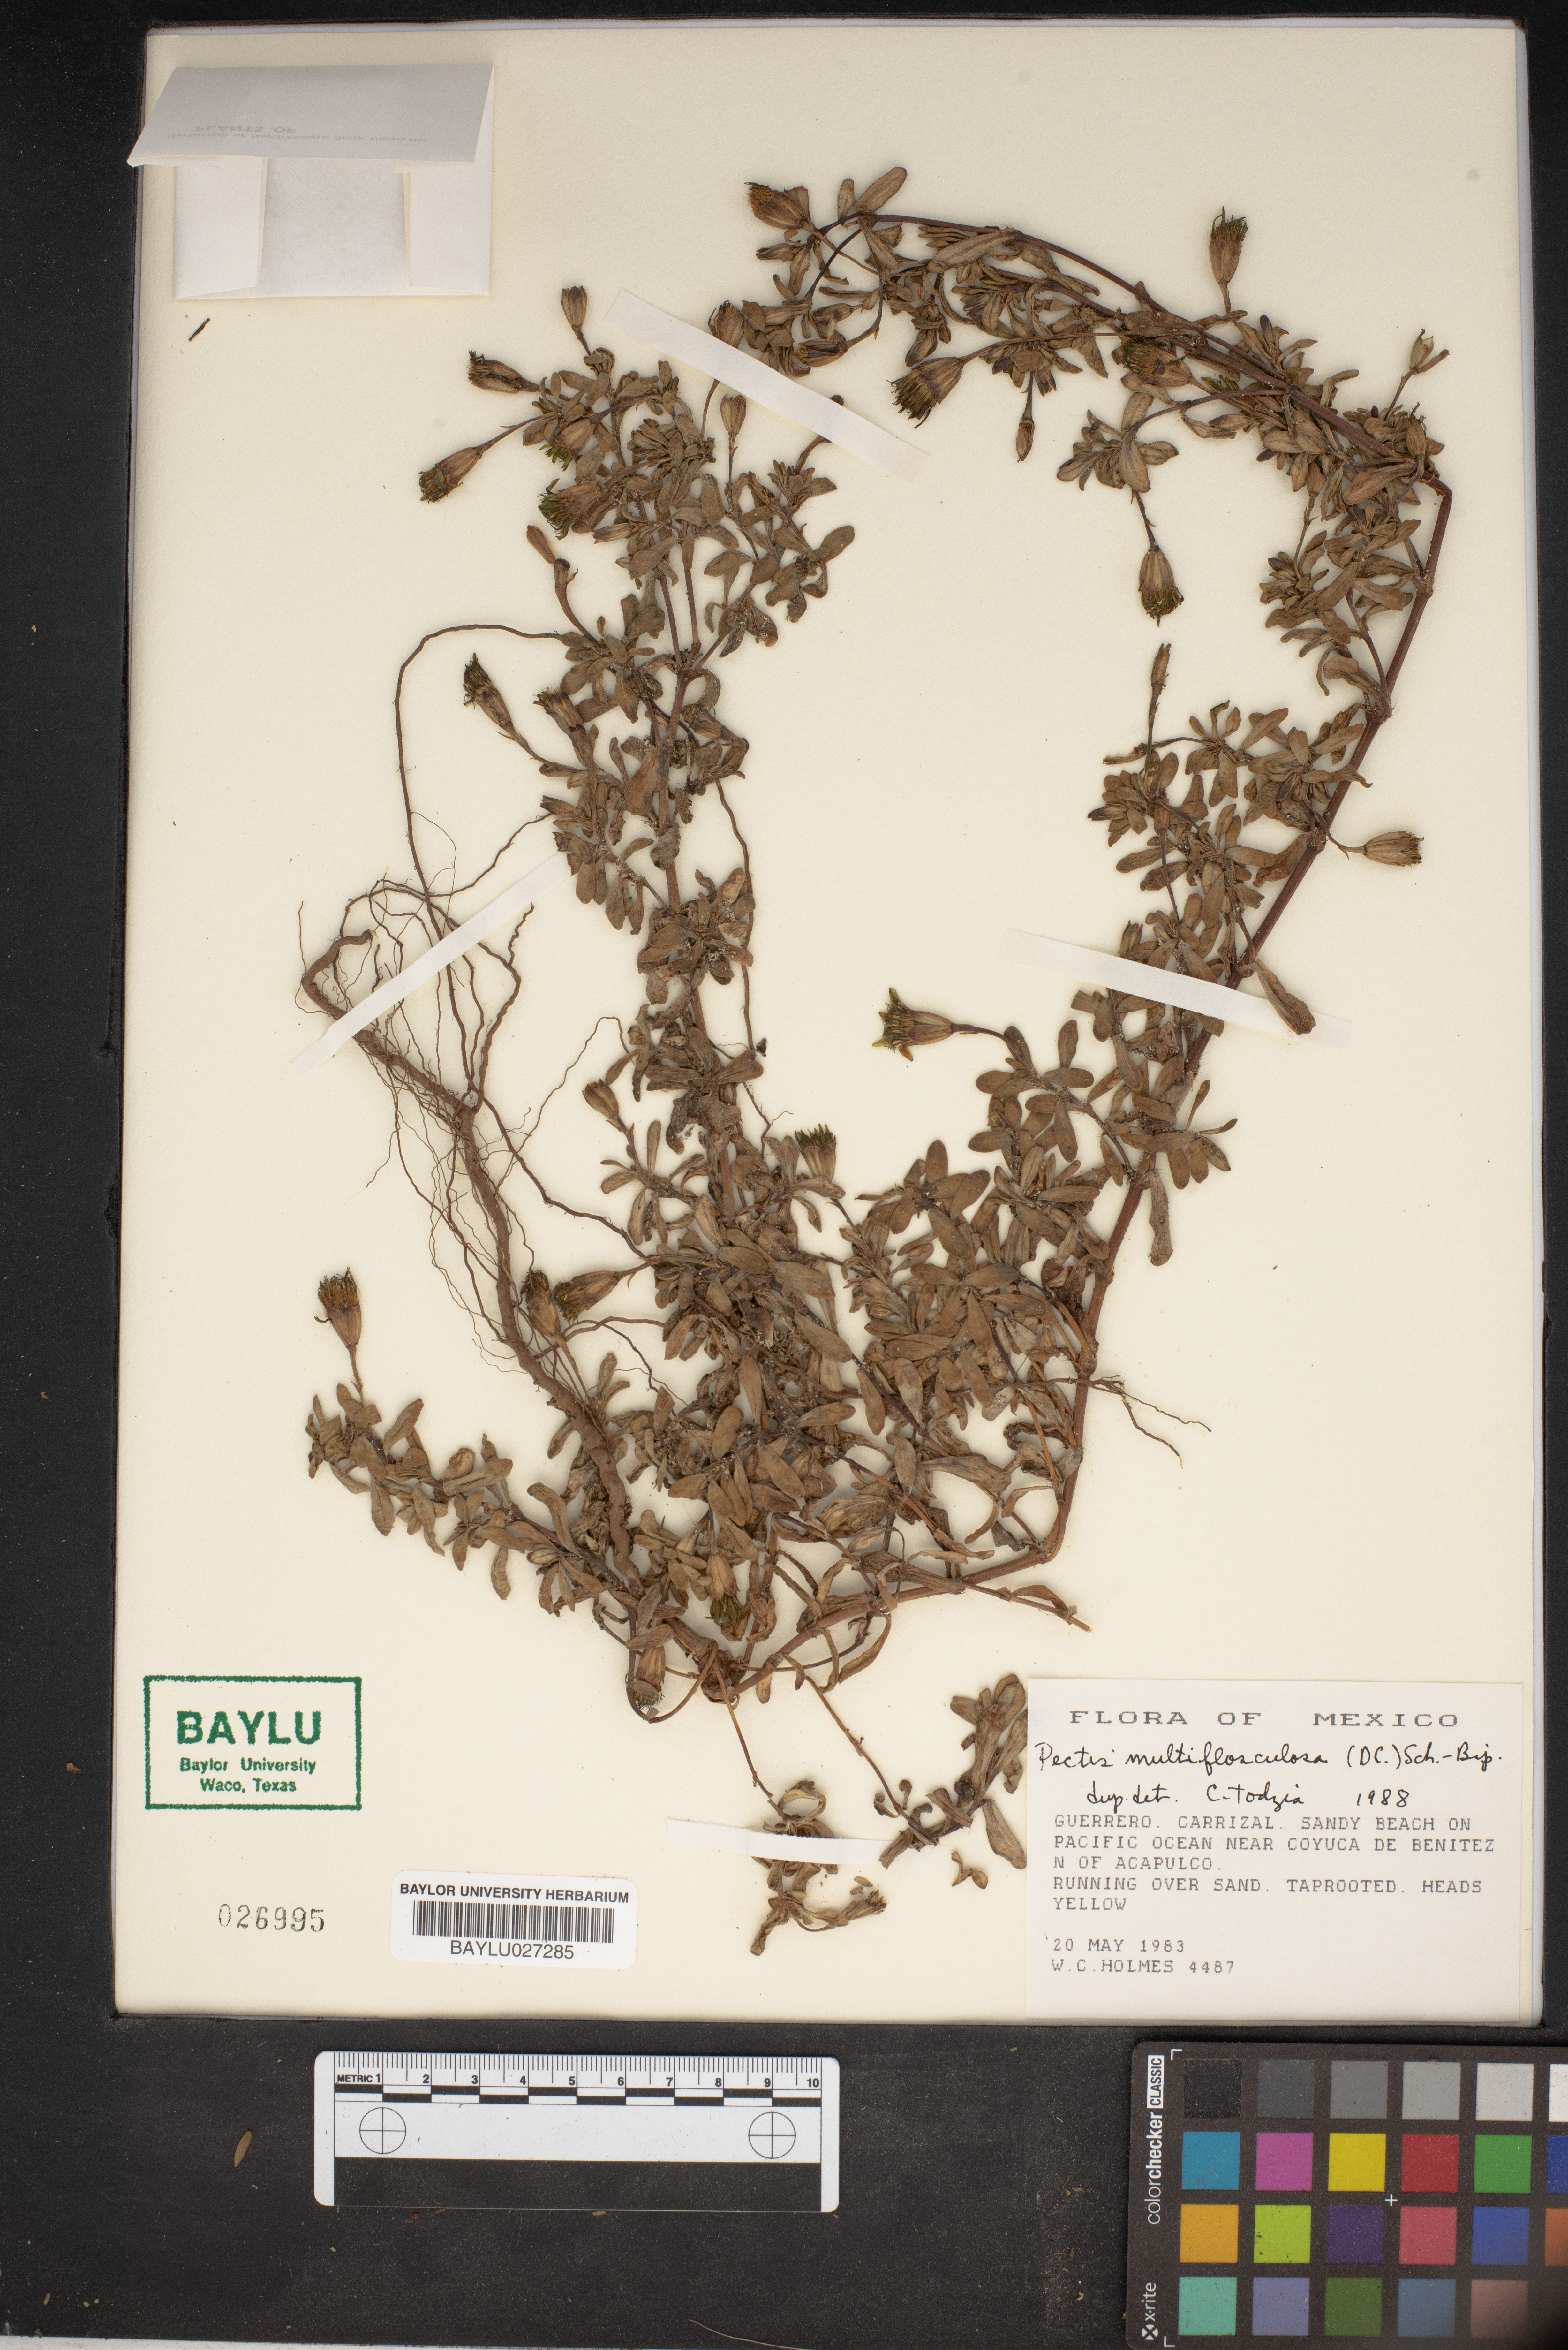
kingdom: Plantae
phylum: Tracheophyta
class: Magnoliopsida
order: Asterales
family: Asteraceae
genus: Pectis
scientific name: Pectis multiflosculosa
